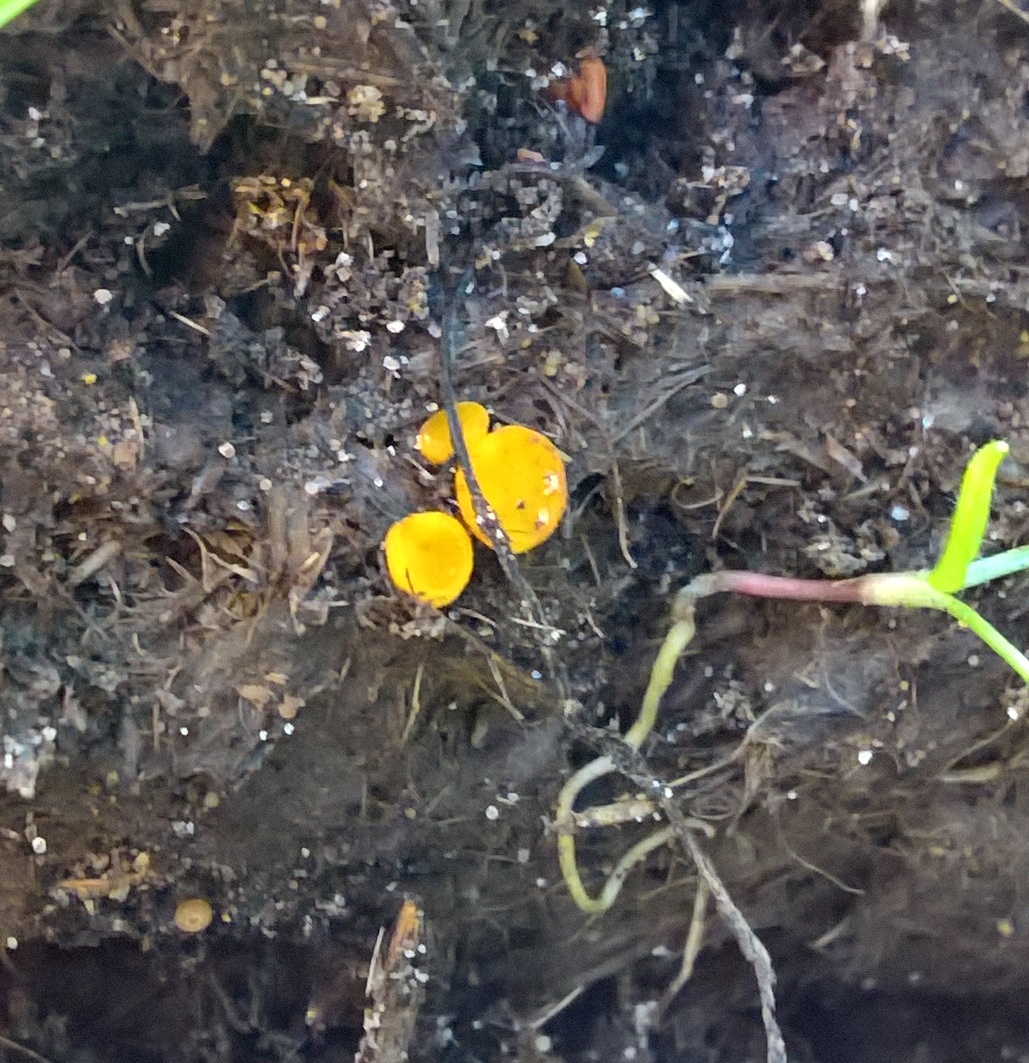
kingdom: Fungi
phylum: Ascomycota
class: Pezizomycetes
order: Pezizales
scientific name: Pezizales
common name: bægersvampordenen
